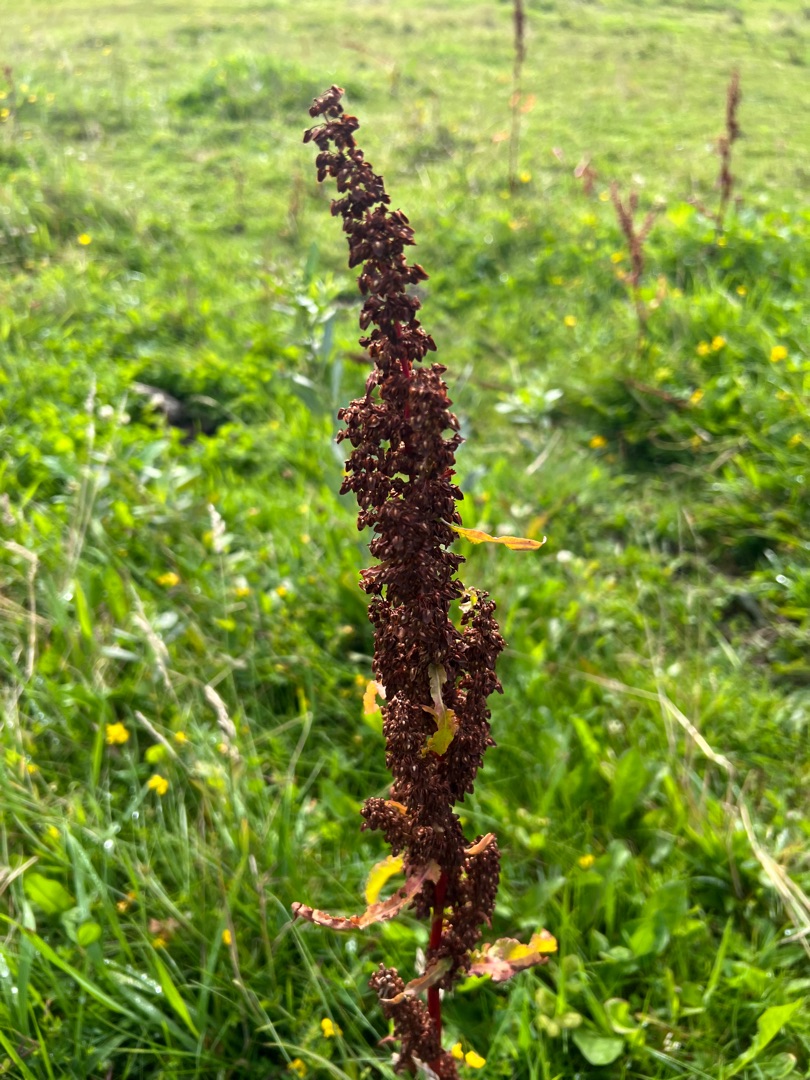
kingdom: Plantae
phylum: Tracheophyta
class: Magnoliopsida
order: Caryophyllales
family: Polygonaceae
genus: Rumex
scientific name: Rumex crispus
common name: Kruset skræppe
